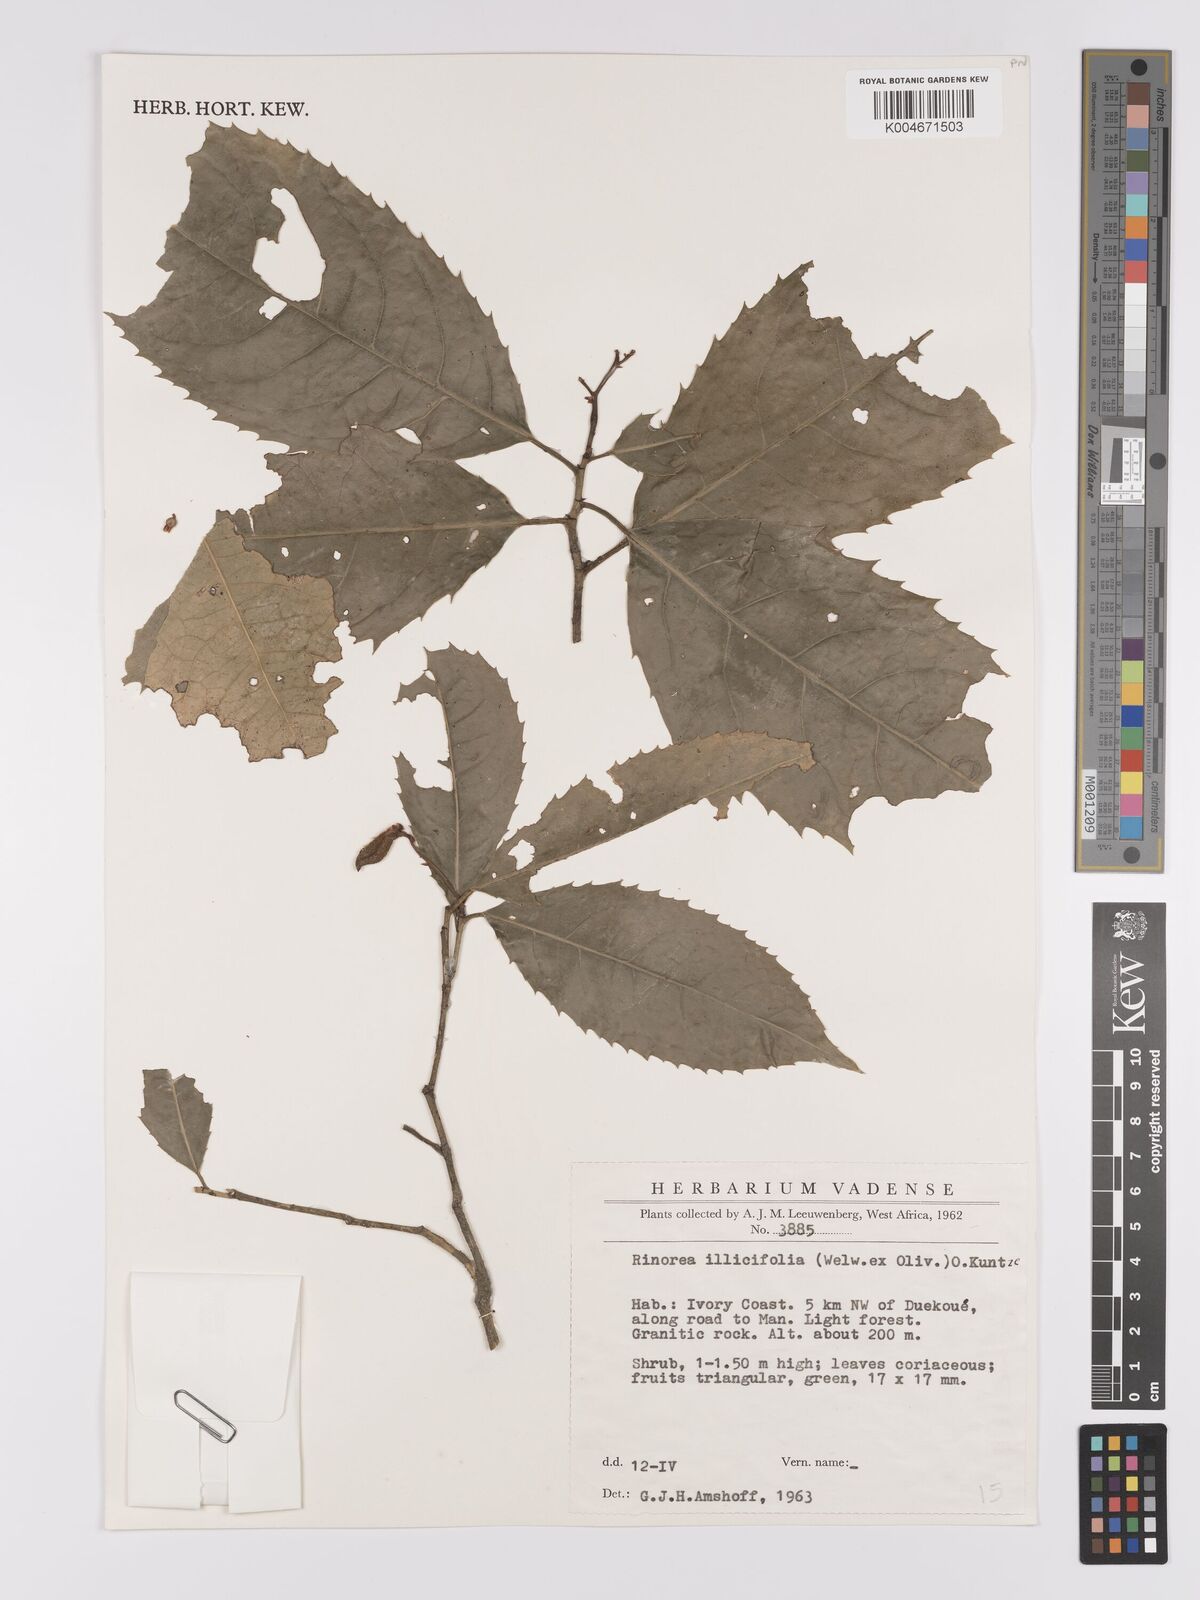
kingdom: Plantae
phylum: Tracheophyta
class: Magnoliopsida
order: Malpighiales
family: Violaceae
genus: Rinorea
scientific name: Rinorea ilicifolia
